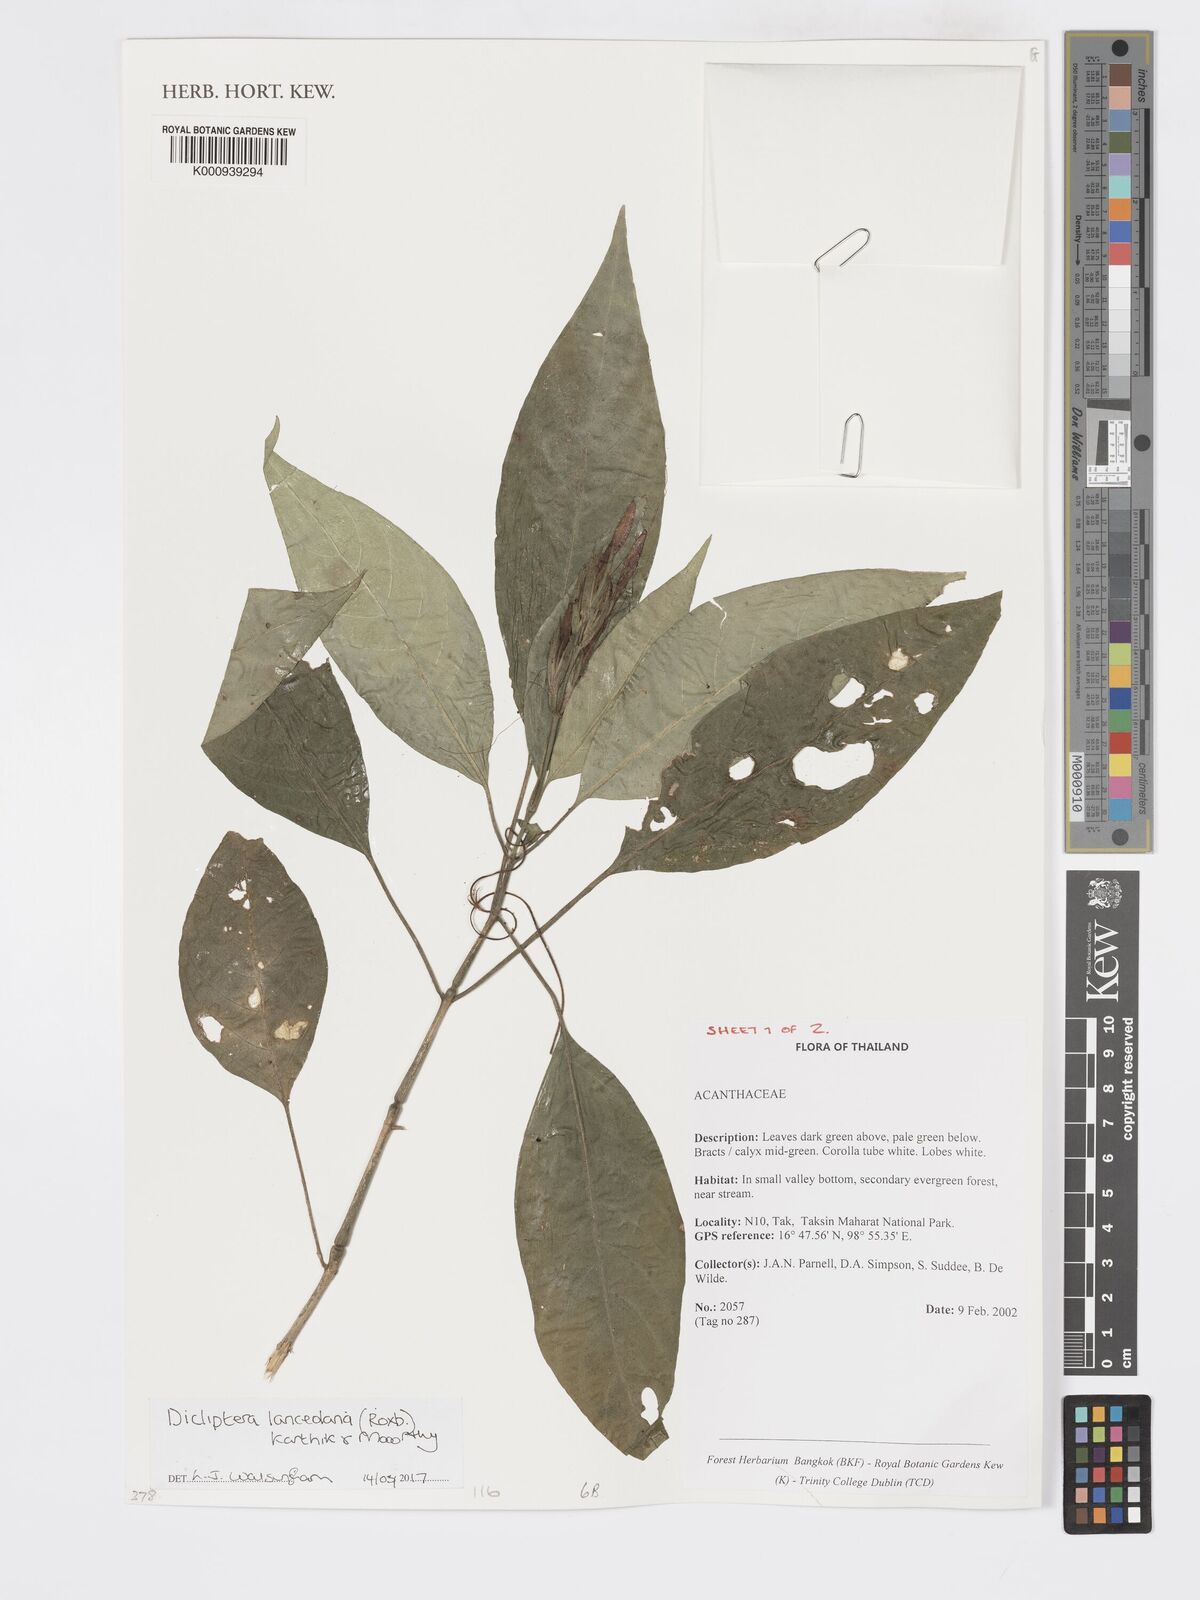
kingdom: Plantae
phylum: Tracheophyta
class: Magnoliopsida
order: Lamiales
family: Acanthaceae
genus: Dicliptera
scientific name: Dicliptera lanceolaria
